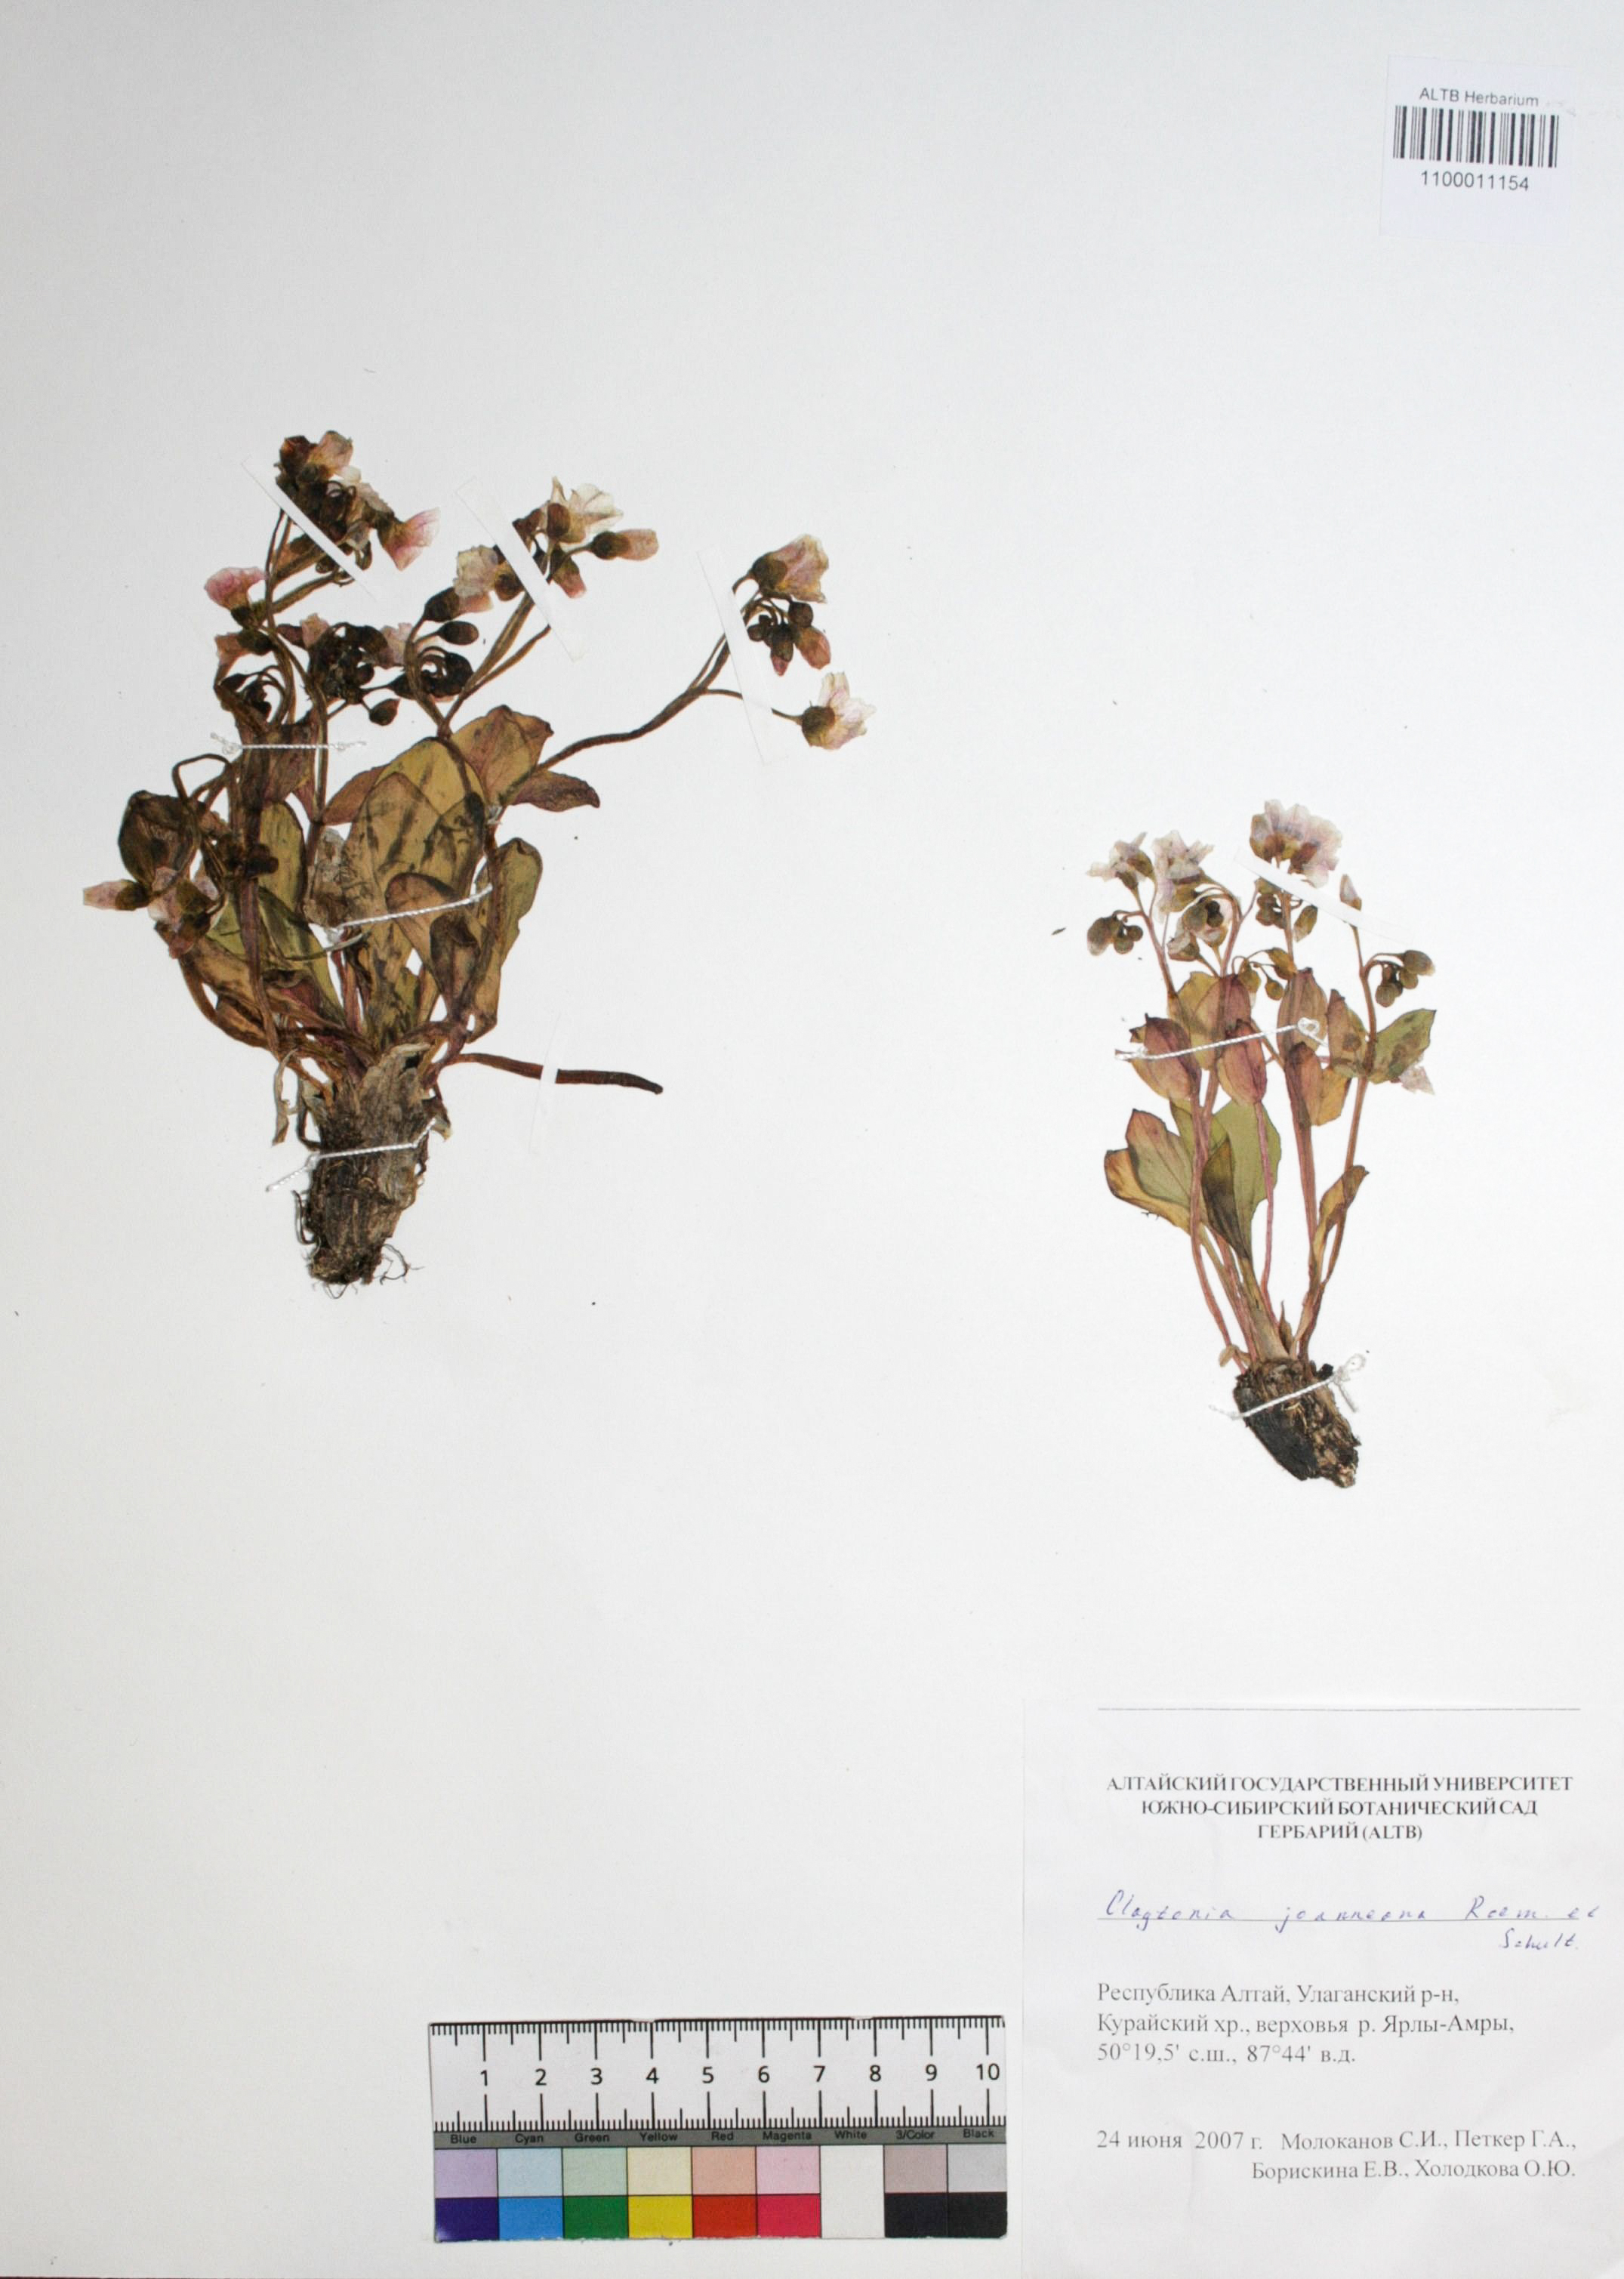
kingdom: Plantae
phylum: Tracheophyta
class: Magnoliopsida
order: Caryophyllales
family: Montiaceae
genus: Claytonia
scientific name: Claytonia joanneana
